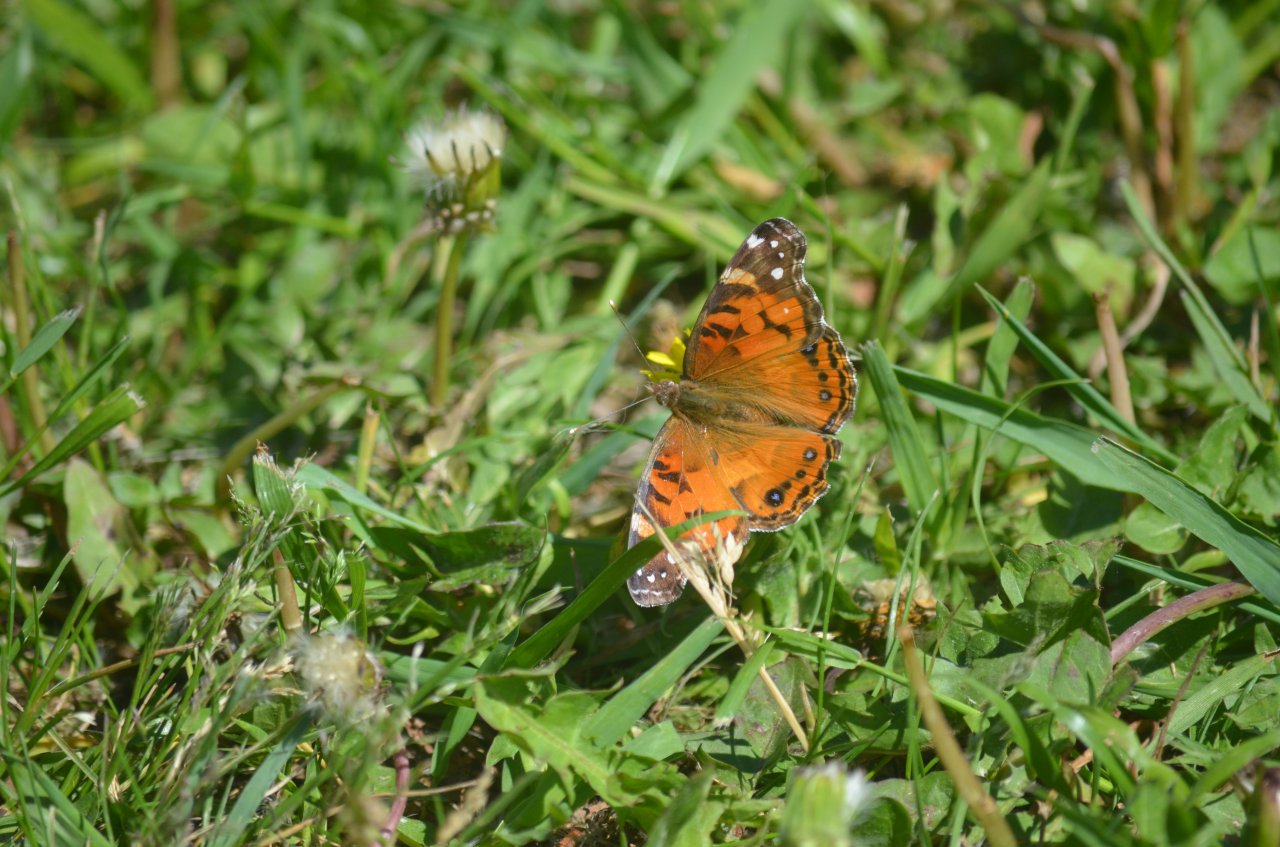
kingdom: Animalia
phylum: Arthropoda
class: Insecta
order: Lepidoptera
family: Nymphalidae
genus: Vanessa
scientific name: Vanessa virginiensis
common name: American Lady
